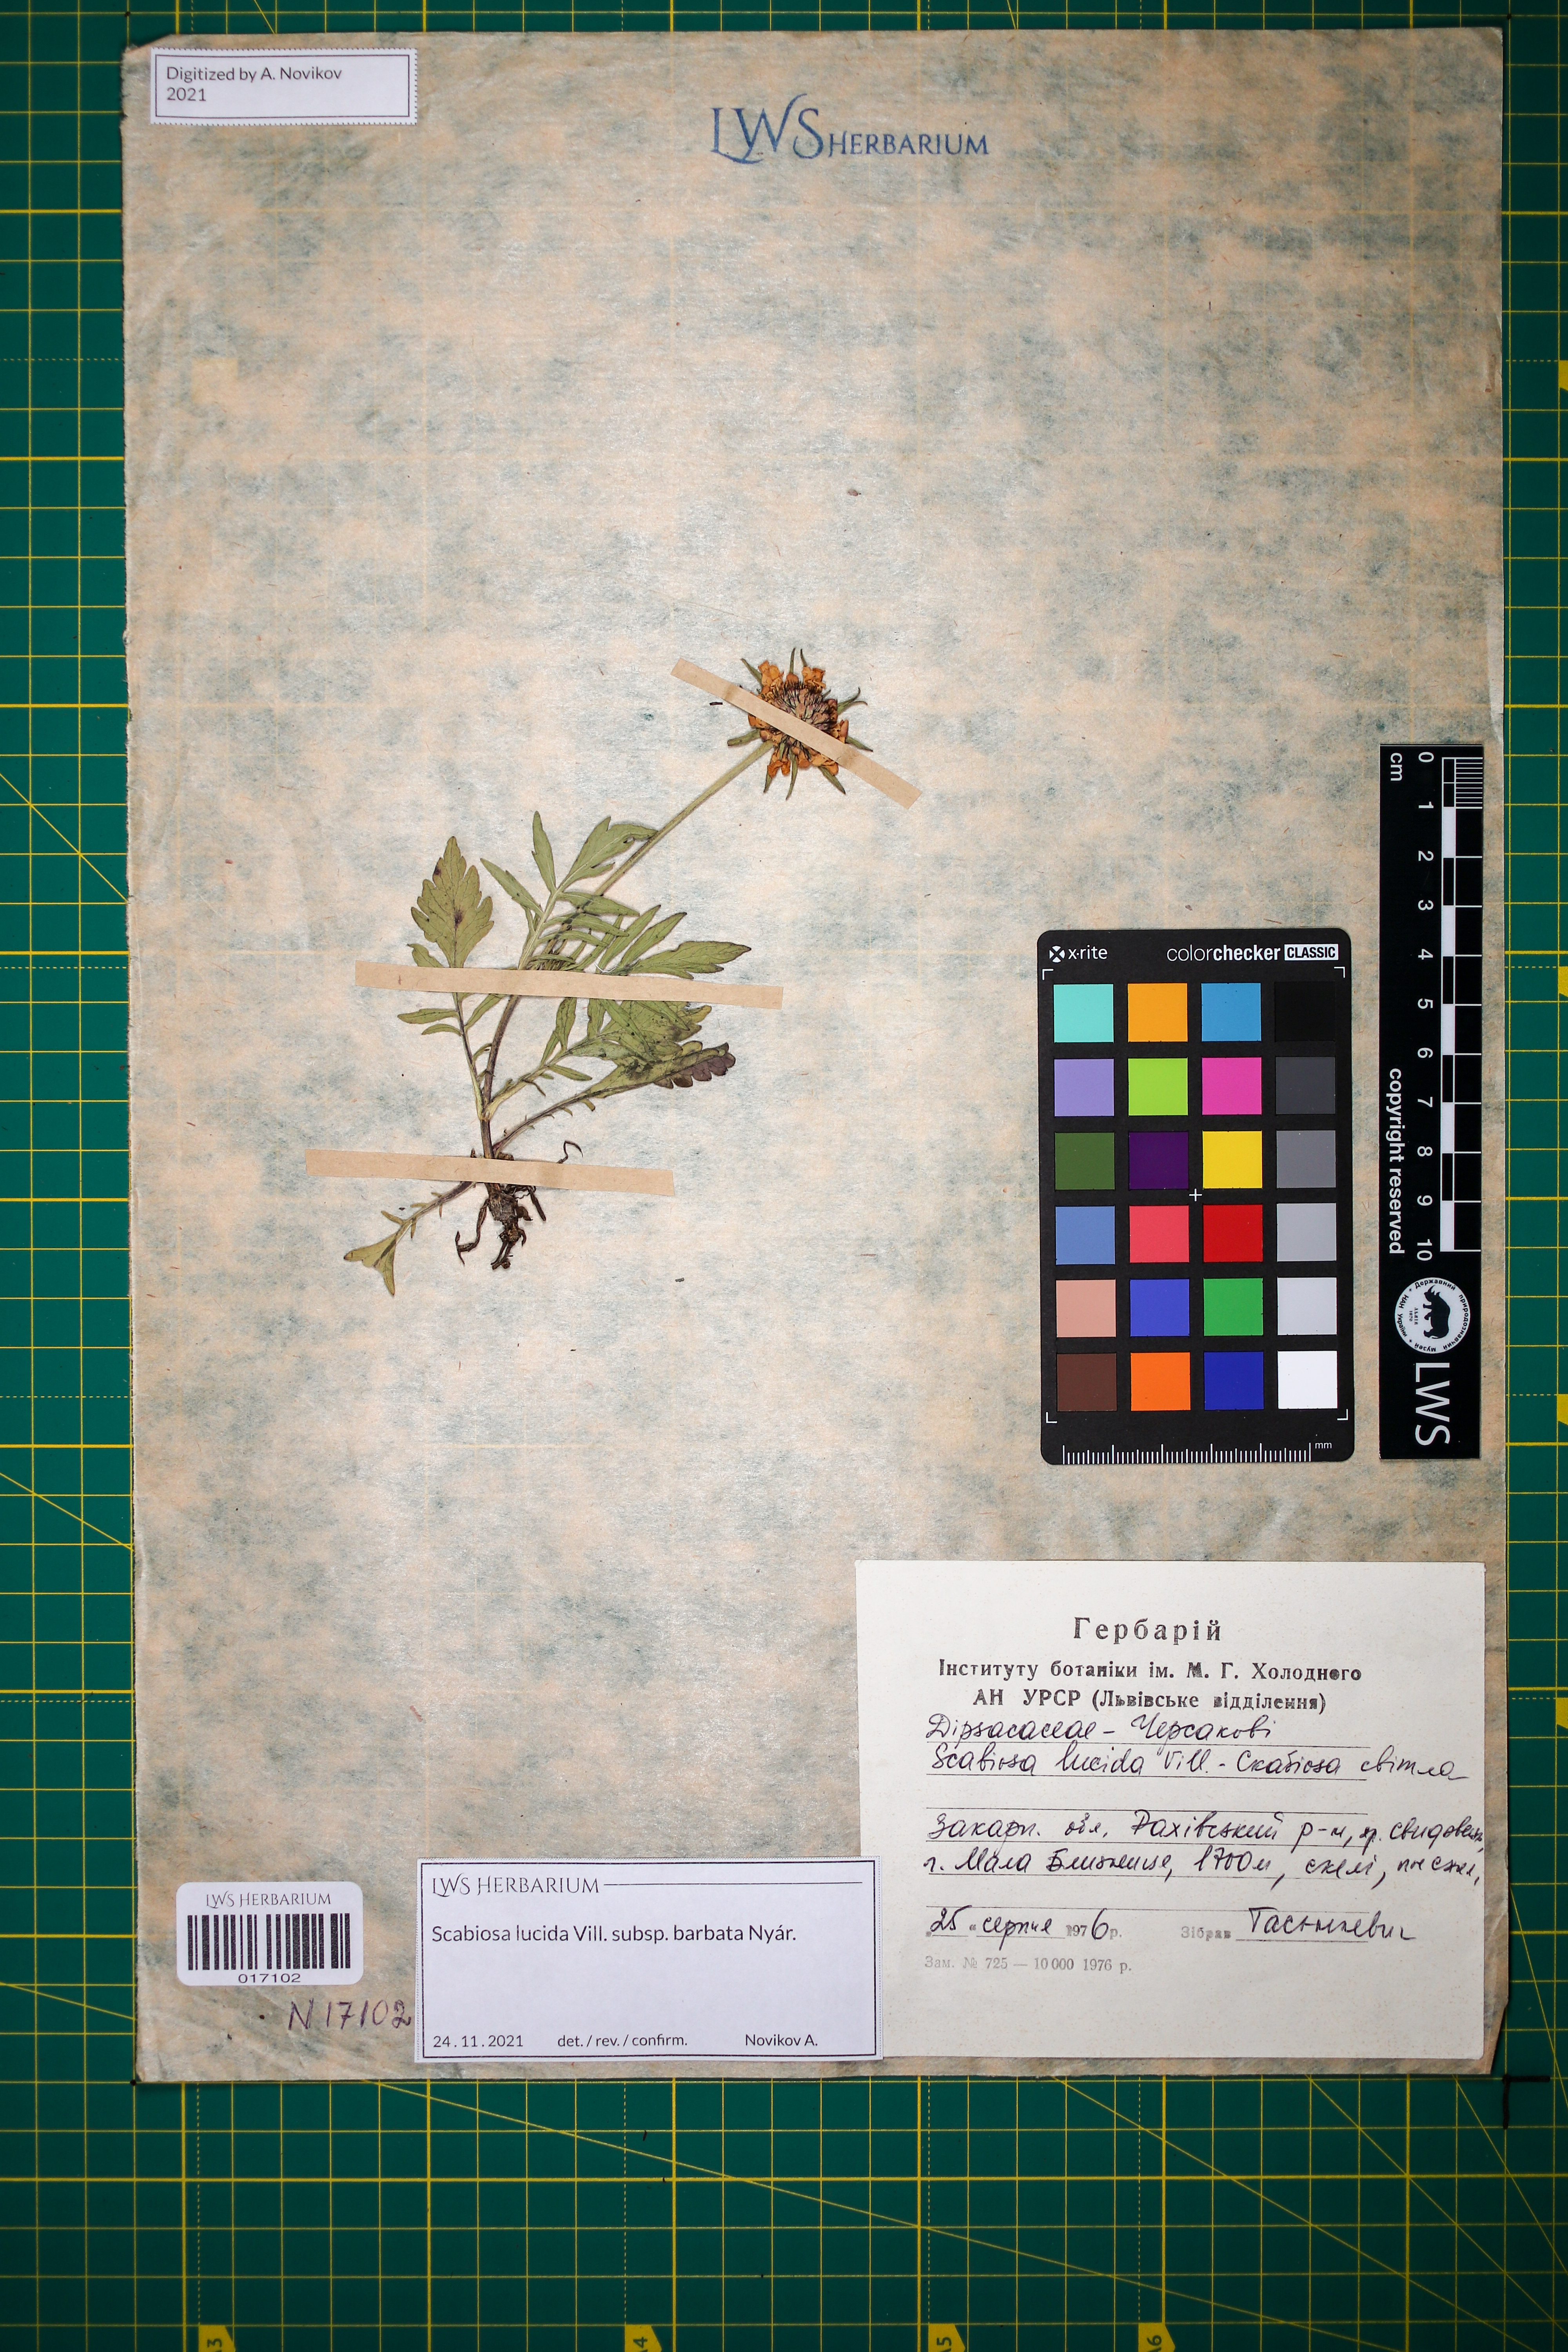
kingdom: Plantae
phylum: Tracheophyta
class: Magnoliopsida
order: Dipsacales
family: Caprifoliaceae
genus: Scabiosa
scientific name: Scabiosa lucida
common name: Shining scabious
